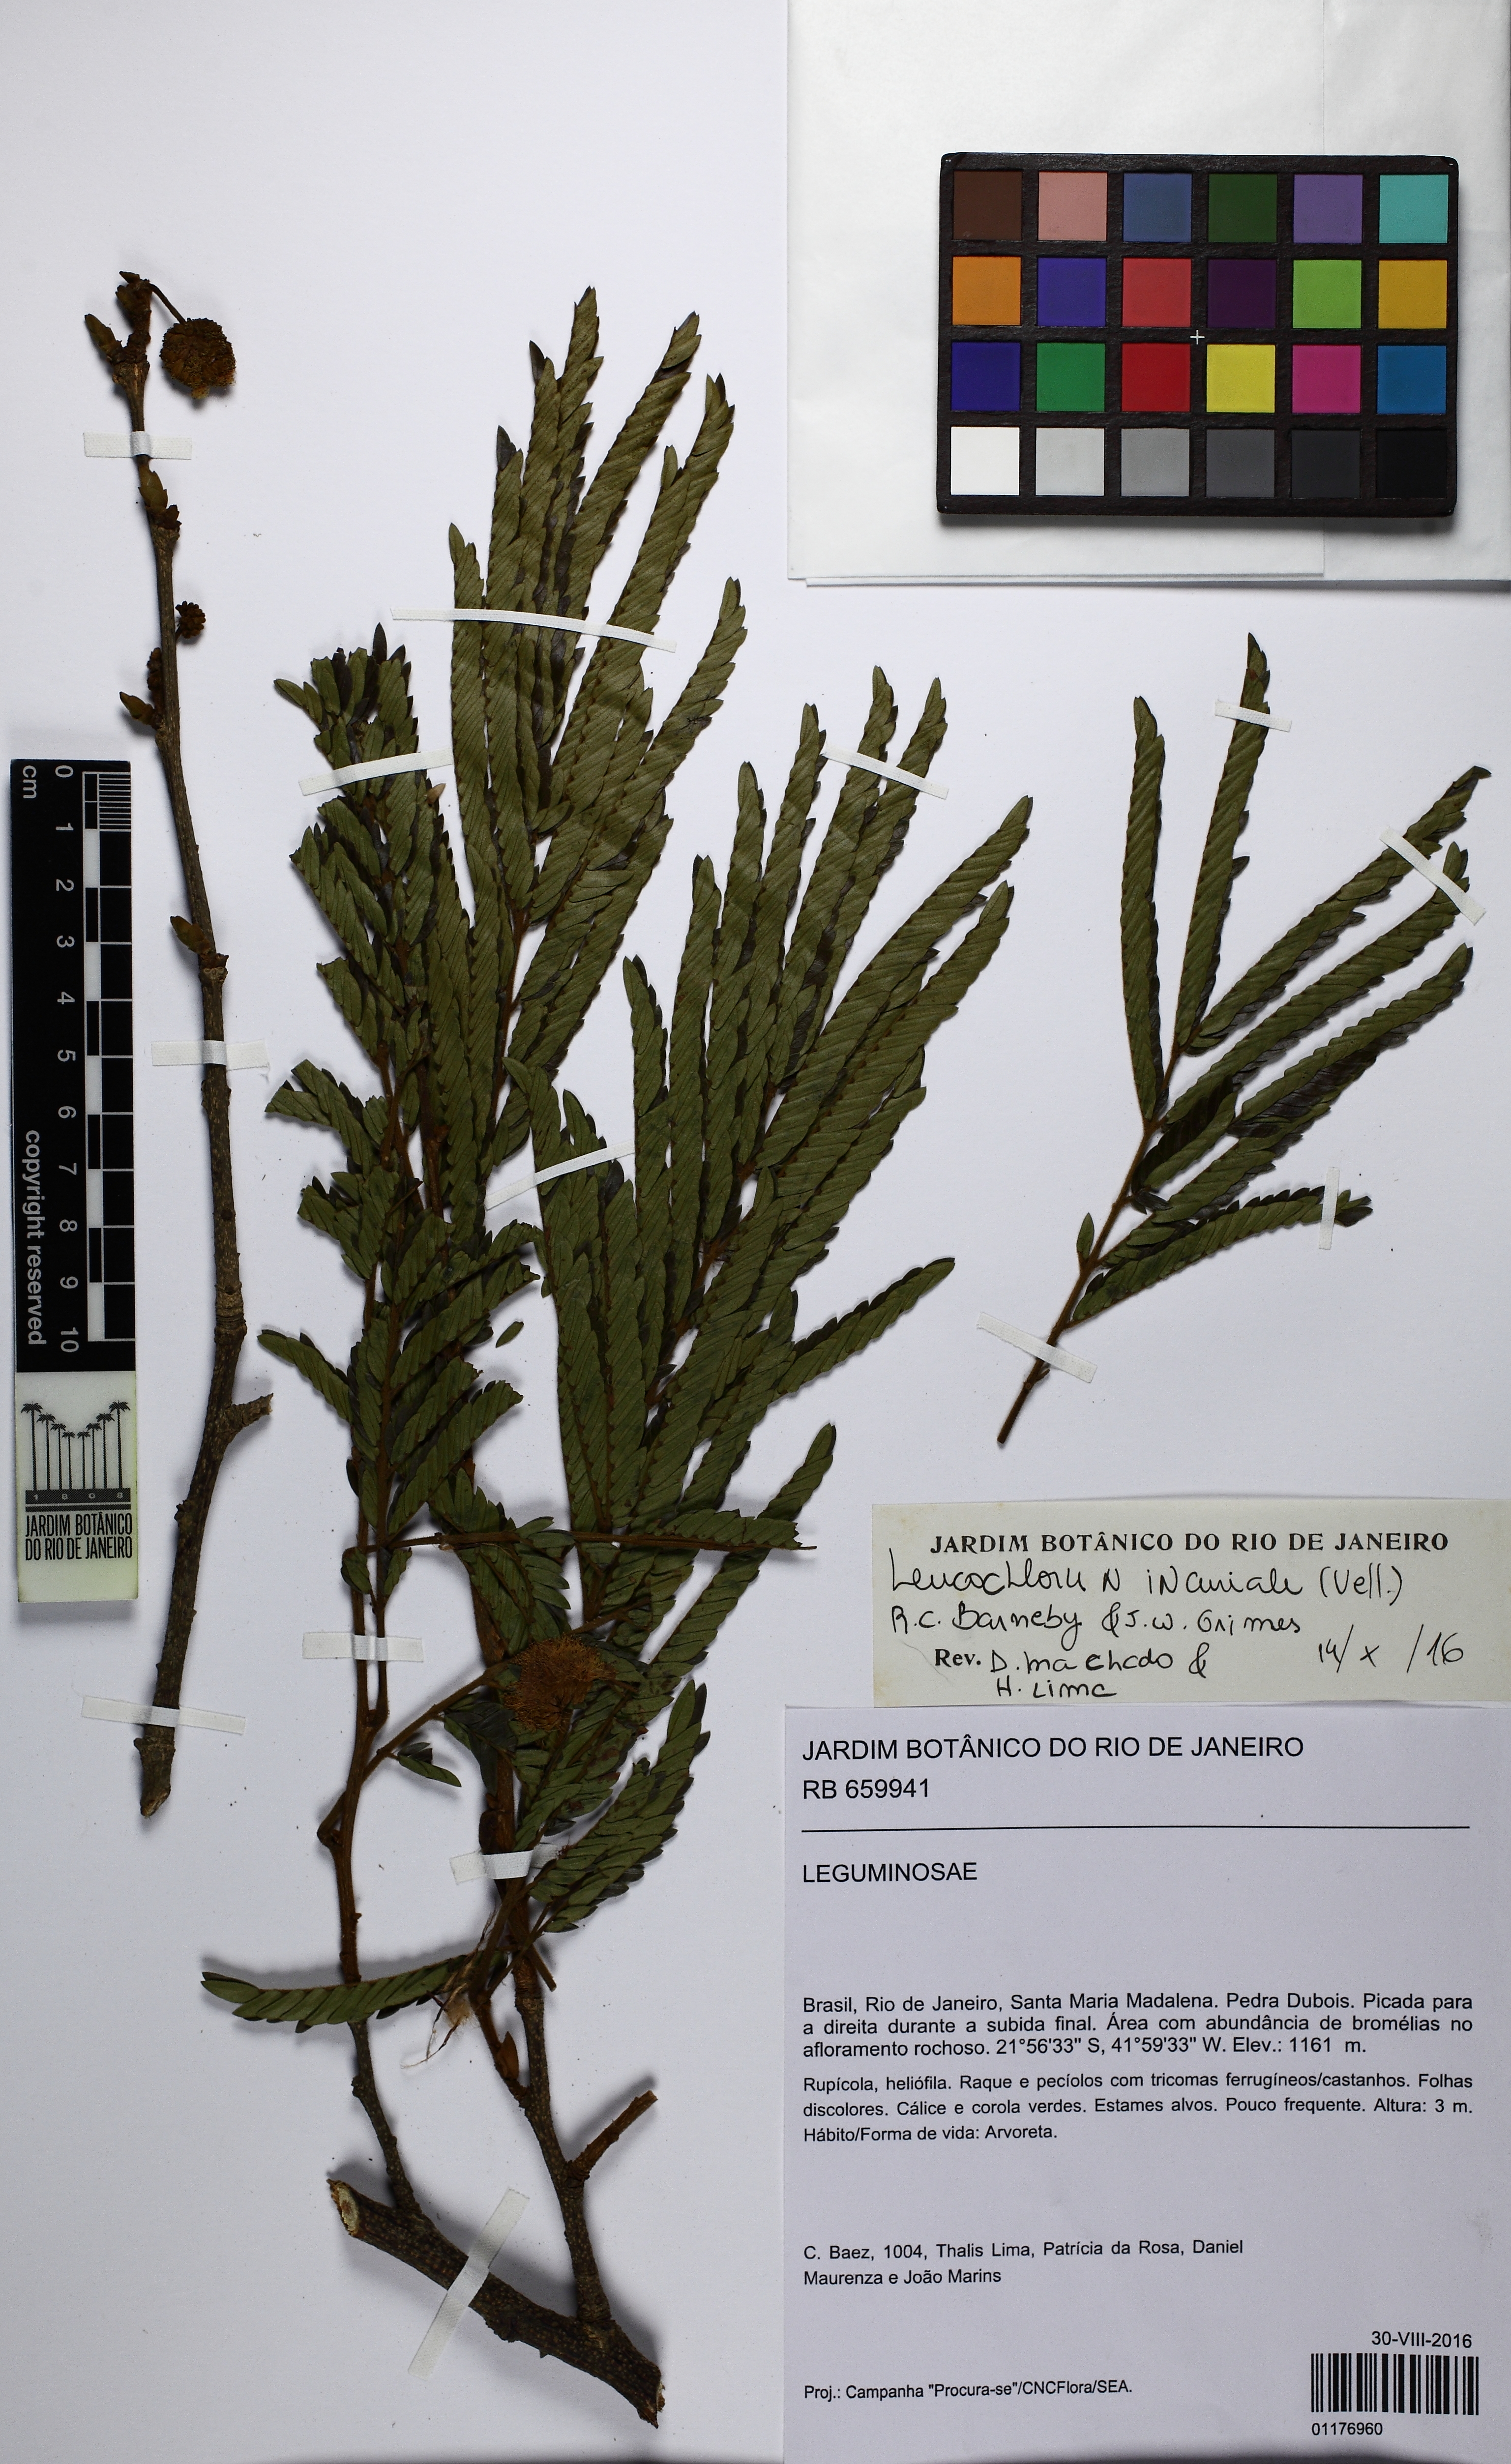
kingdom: Plantae
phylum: Tracheophyta
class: Magnoliopsida
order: Fabales
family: Fabaceae
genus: Leucochloron
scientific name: Leucochloron incuriale
